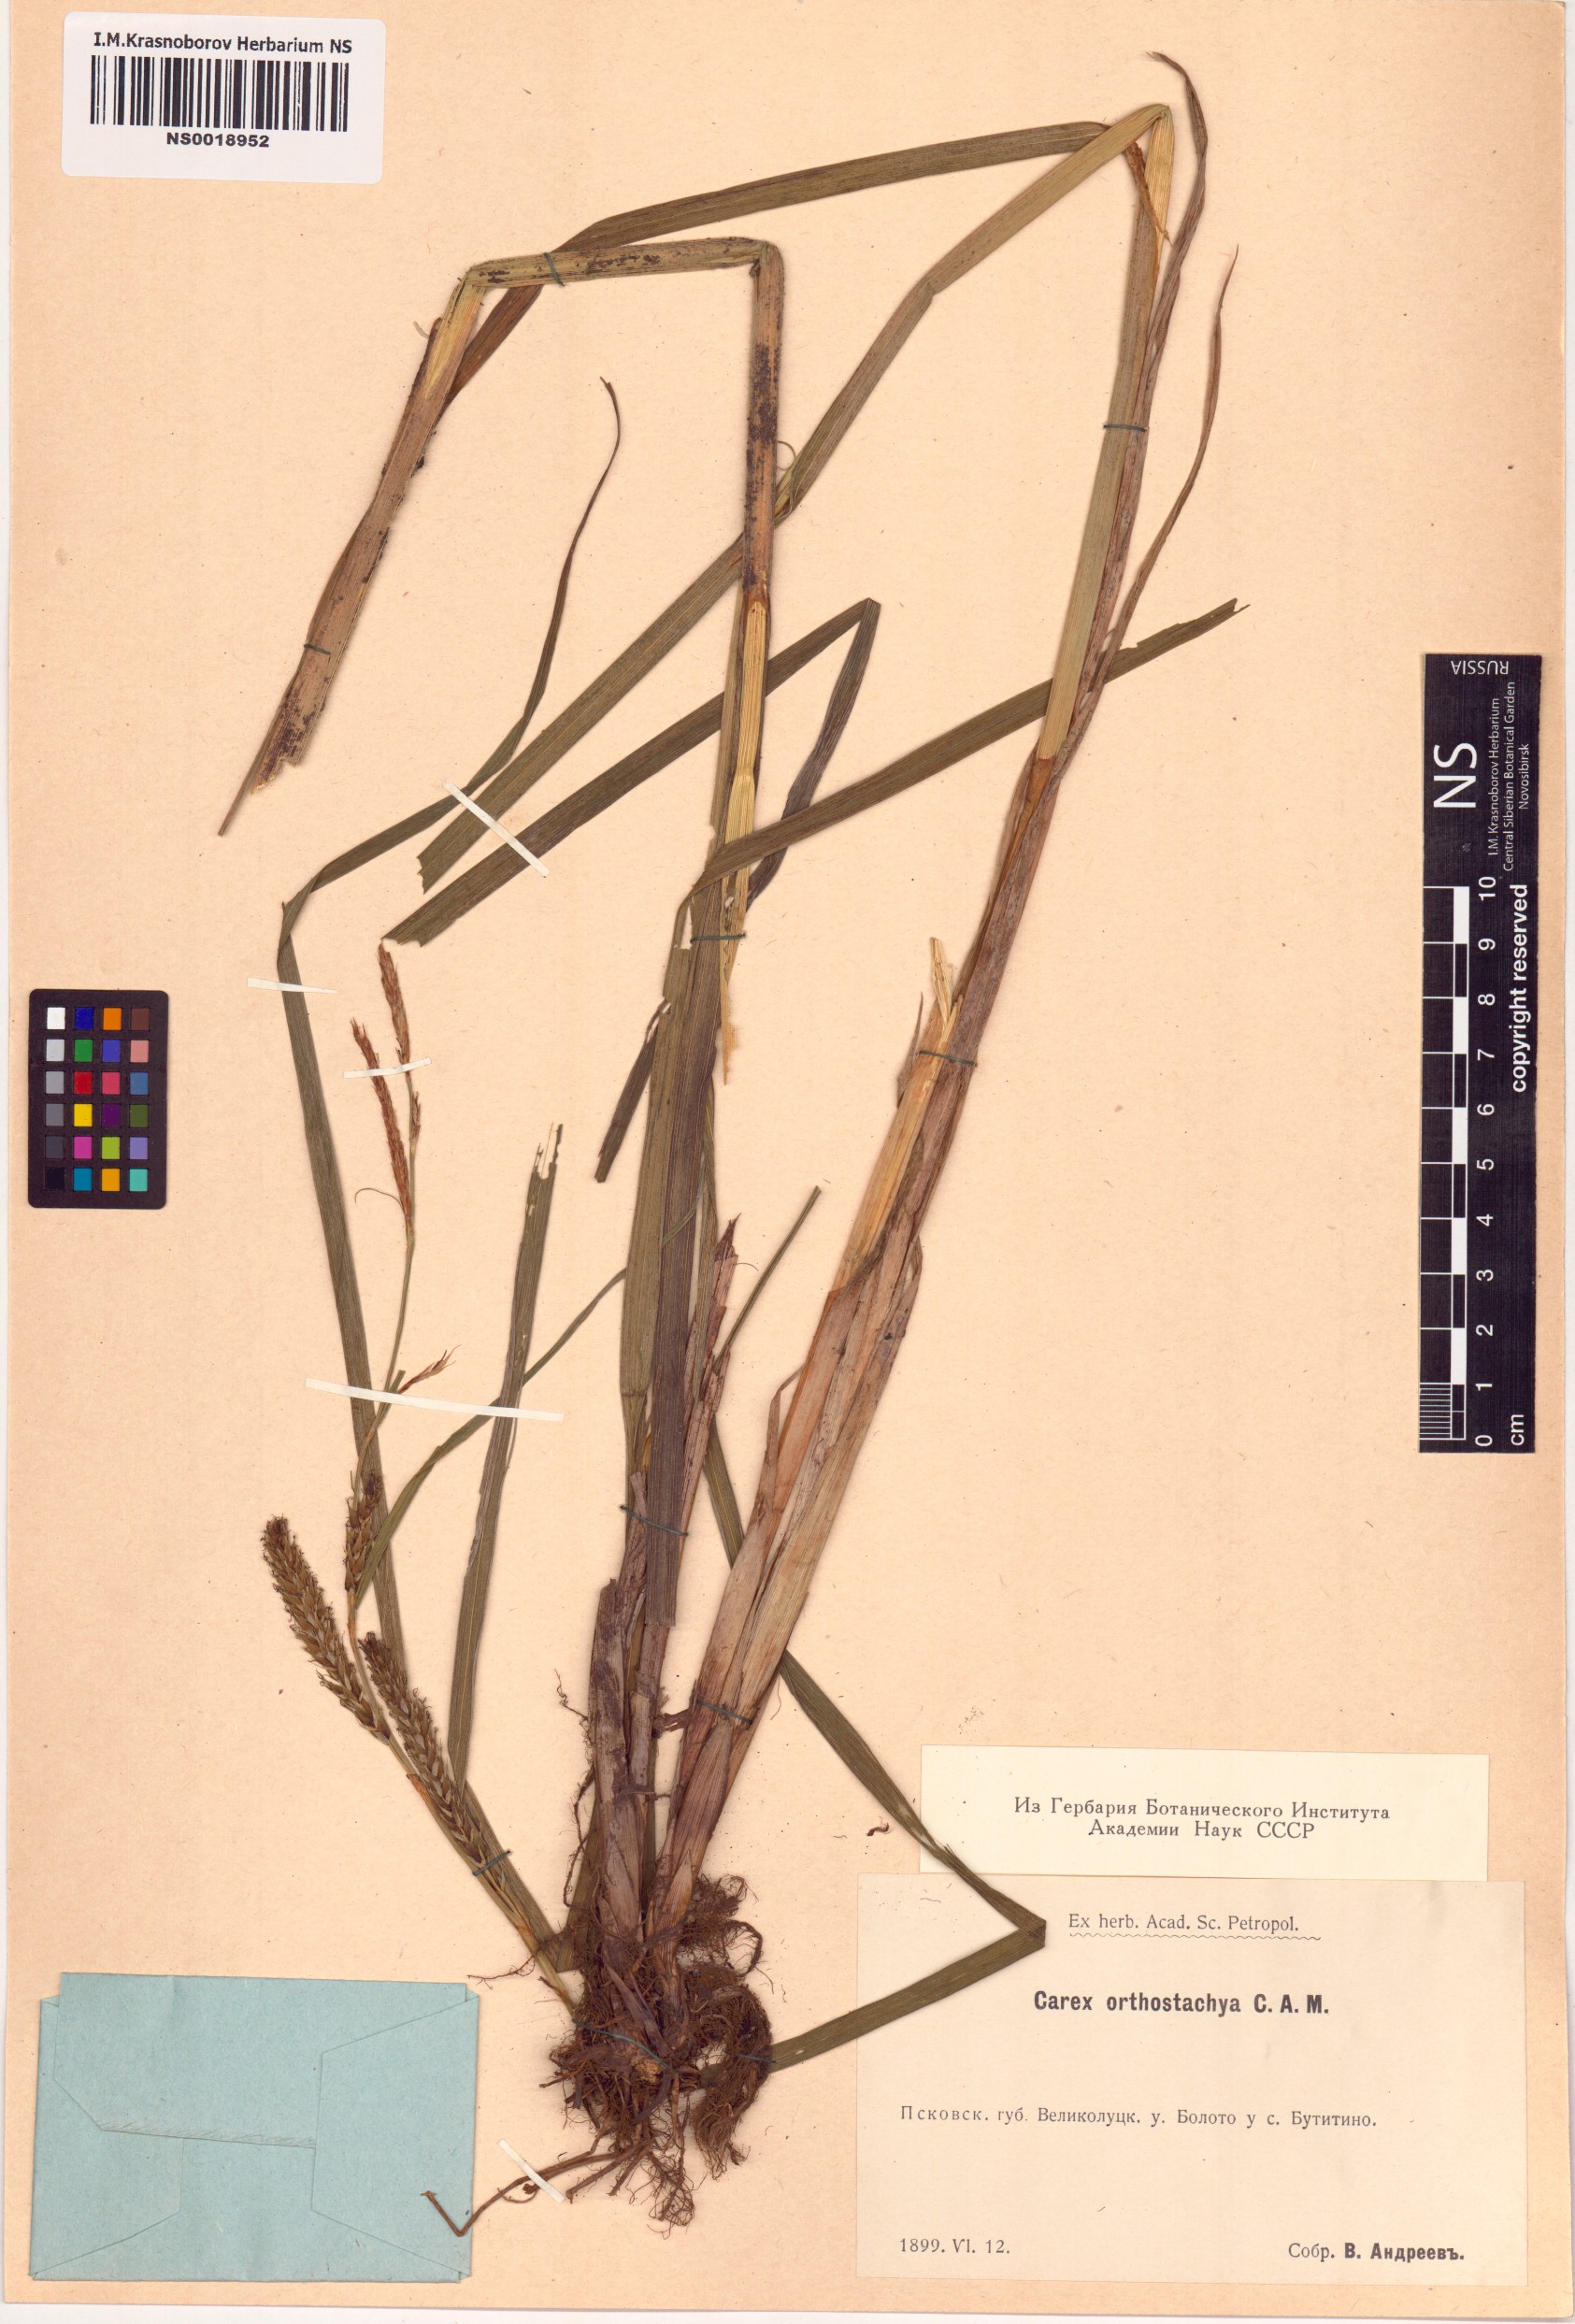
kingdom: Plantae
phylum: Tracheophyta
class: Liliopsida
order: Poales
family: Cyperaceae
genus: Carex
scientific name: Carex atherodes
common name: Wheat sedge
